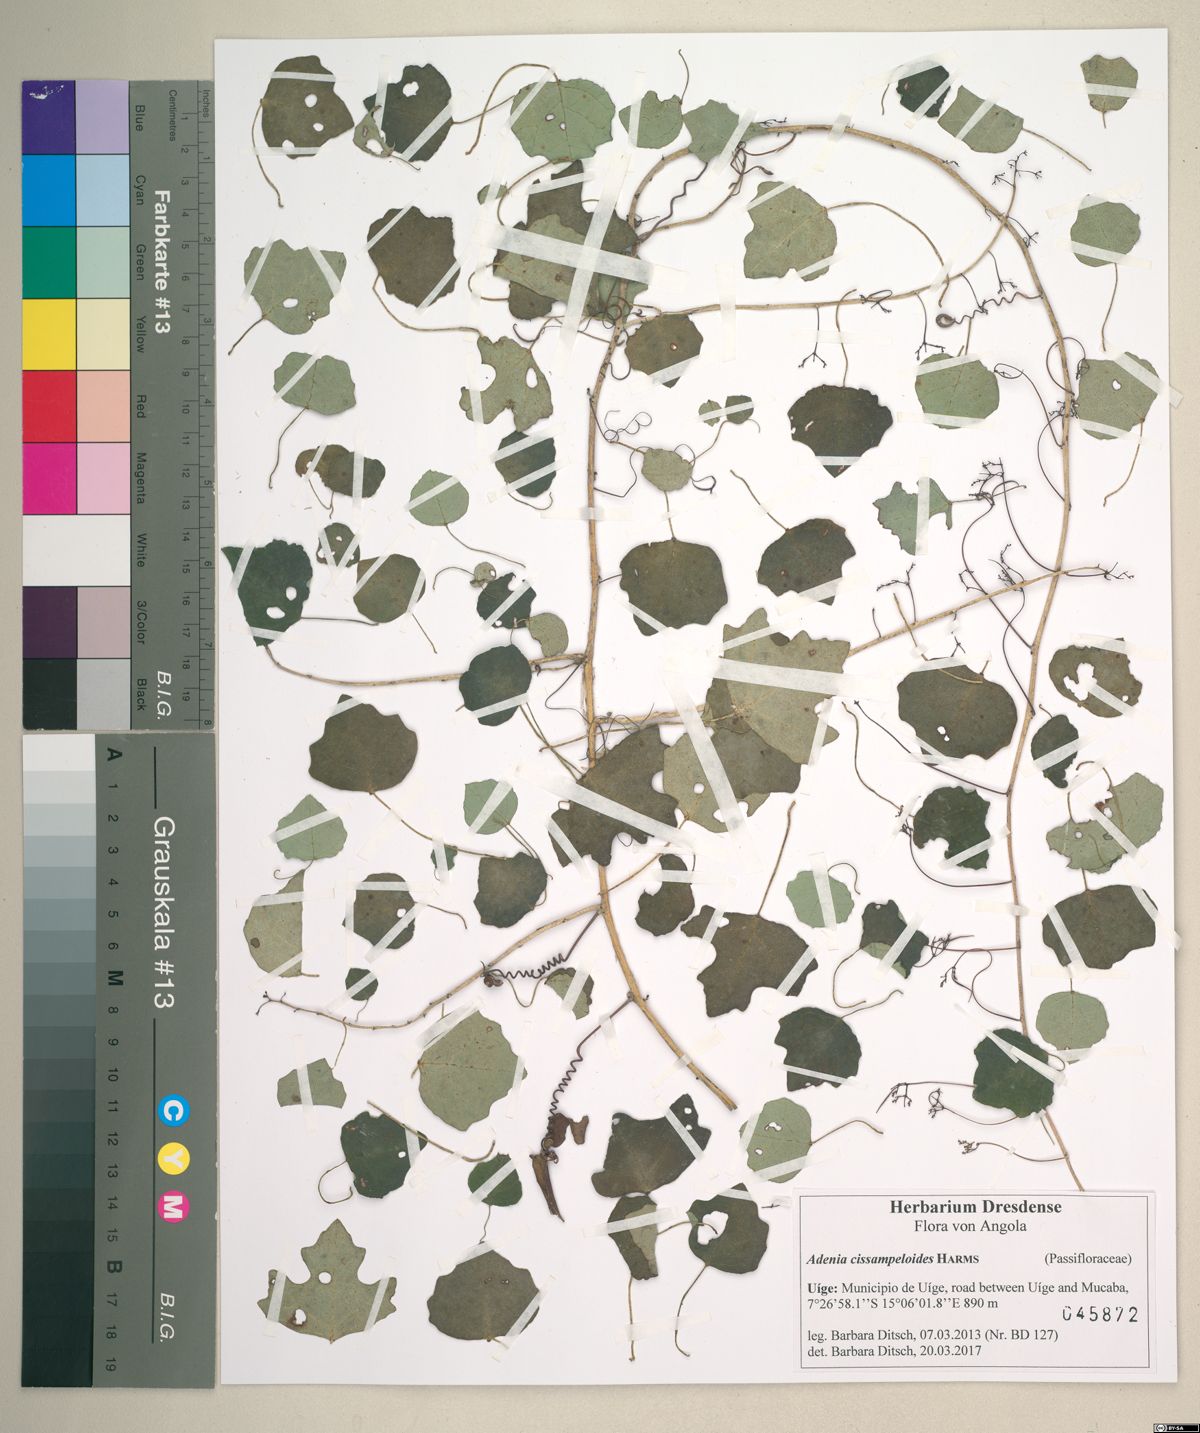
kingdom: Plantae
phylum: Tracheophyta
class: Magnoliopsida
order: Malpighiales
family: Passifloraceae
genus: Adenia
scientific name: Adenia cissampeloides
